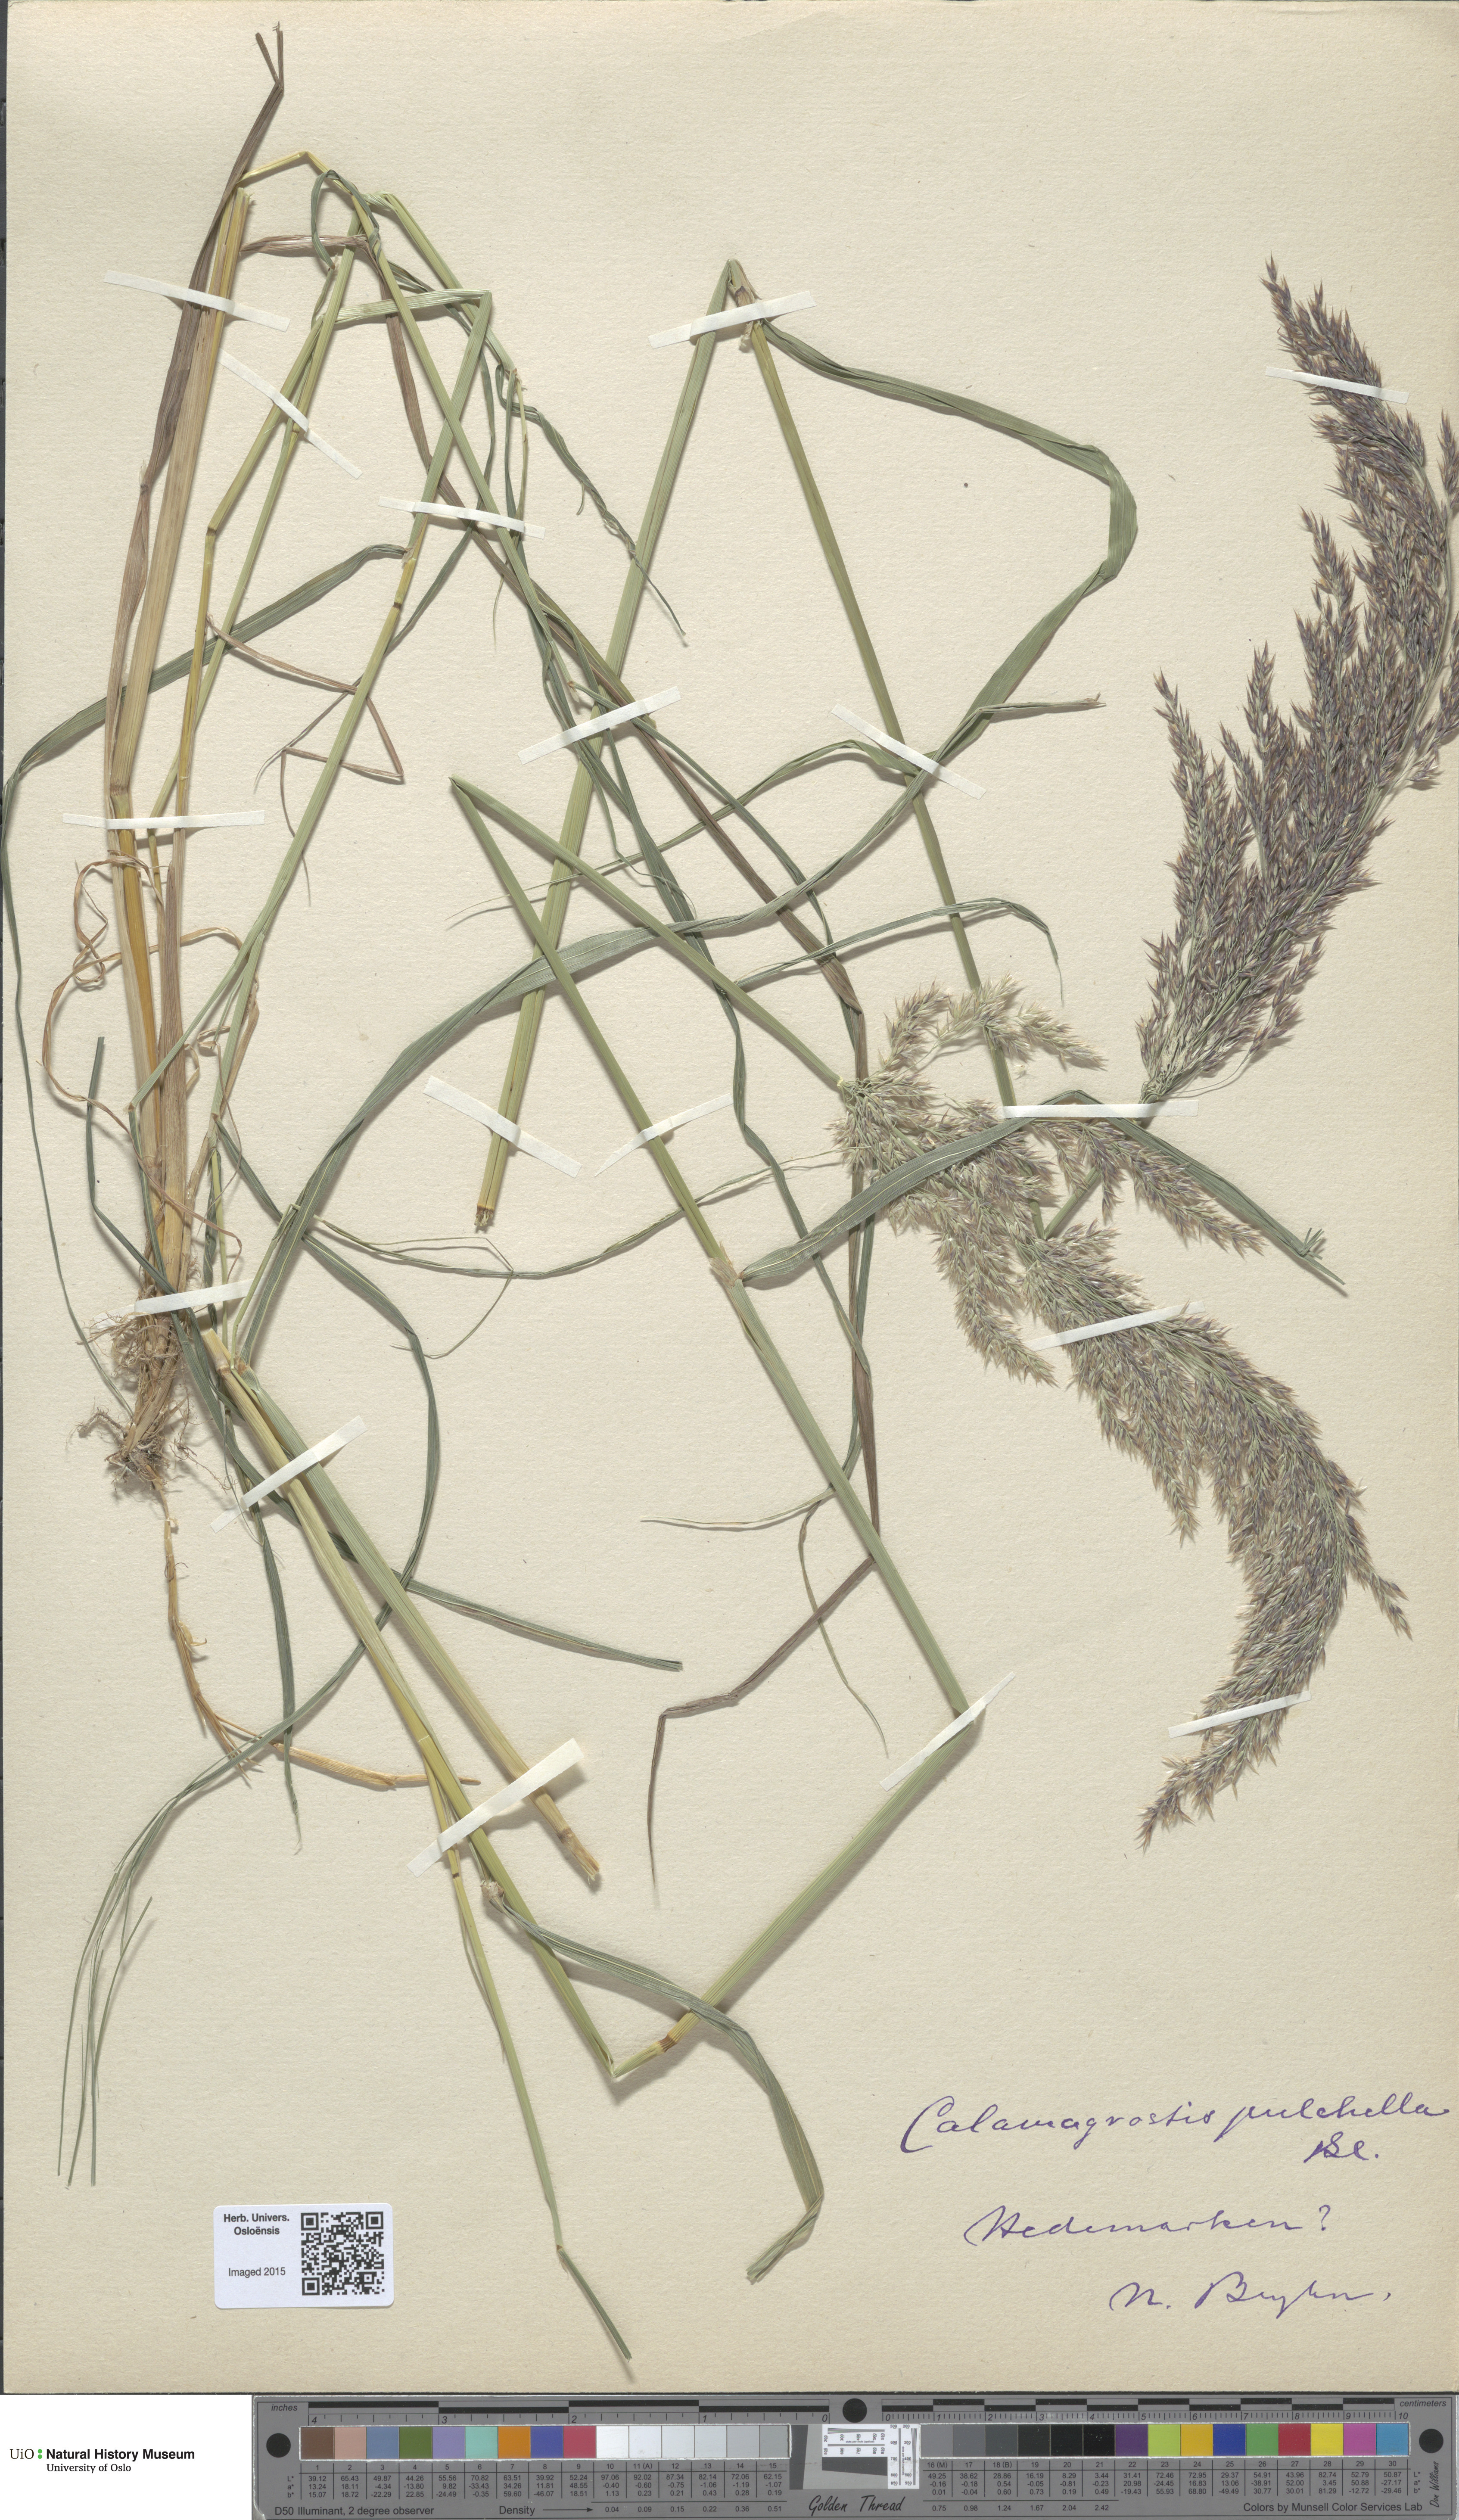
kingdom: Plantae
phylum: Tracheophyta
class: Liliopsida
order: Poales
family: Poaceae
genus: Calamagrostis
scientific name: Calamagrostis purpurea
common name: Scandinavian small-reed
